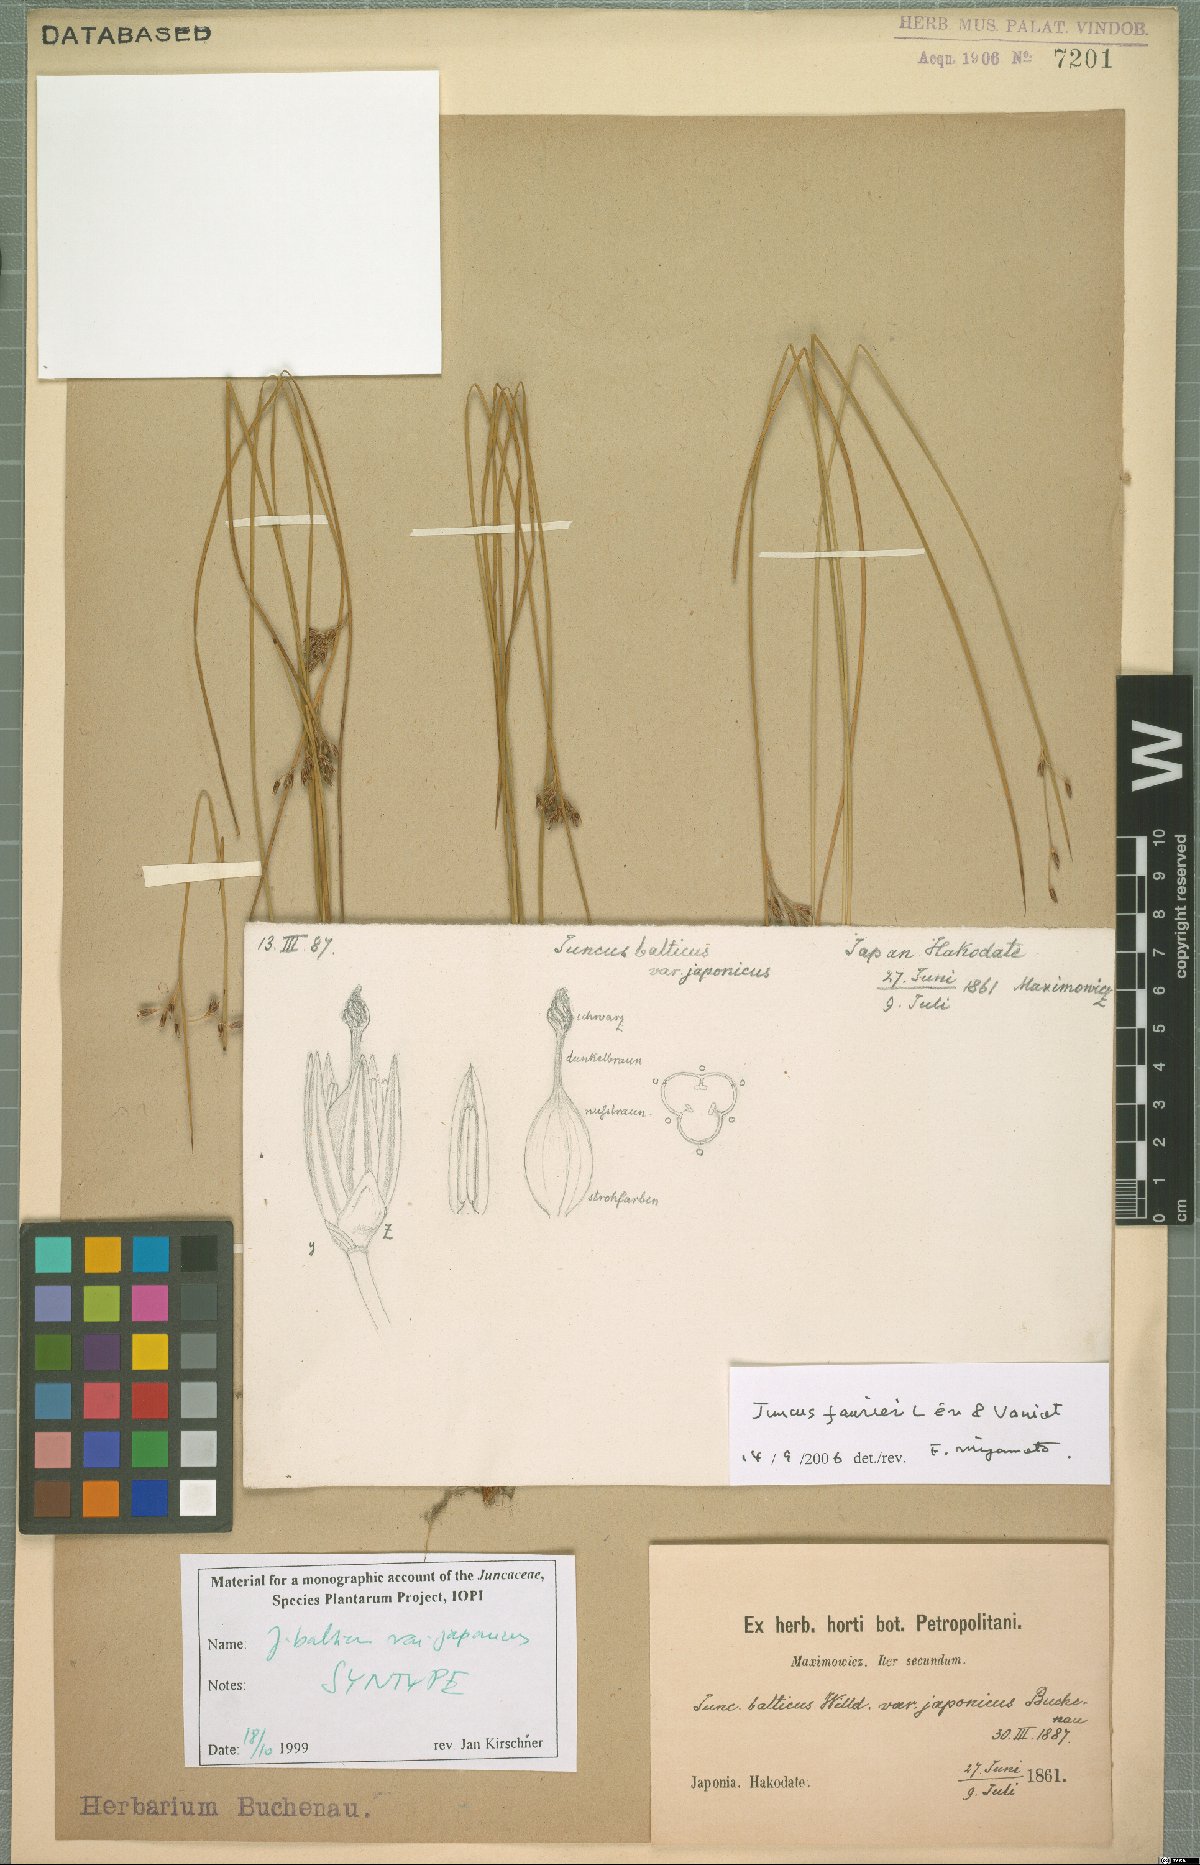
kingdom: Plantae
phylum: Tracheophyta
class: Liliopsida
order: Poales
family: Juncaceae
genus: Juncus
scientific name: Juncus fauriei
